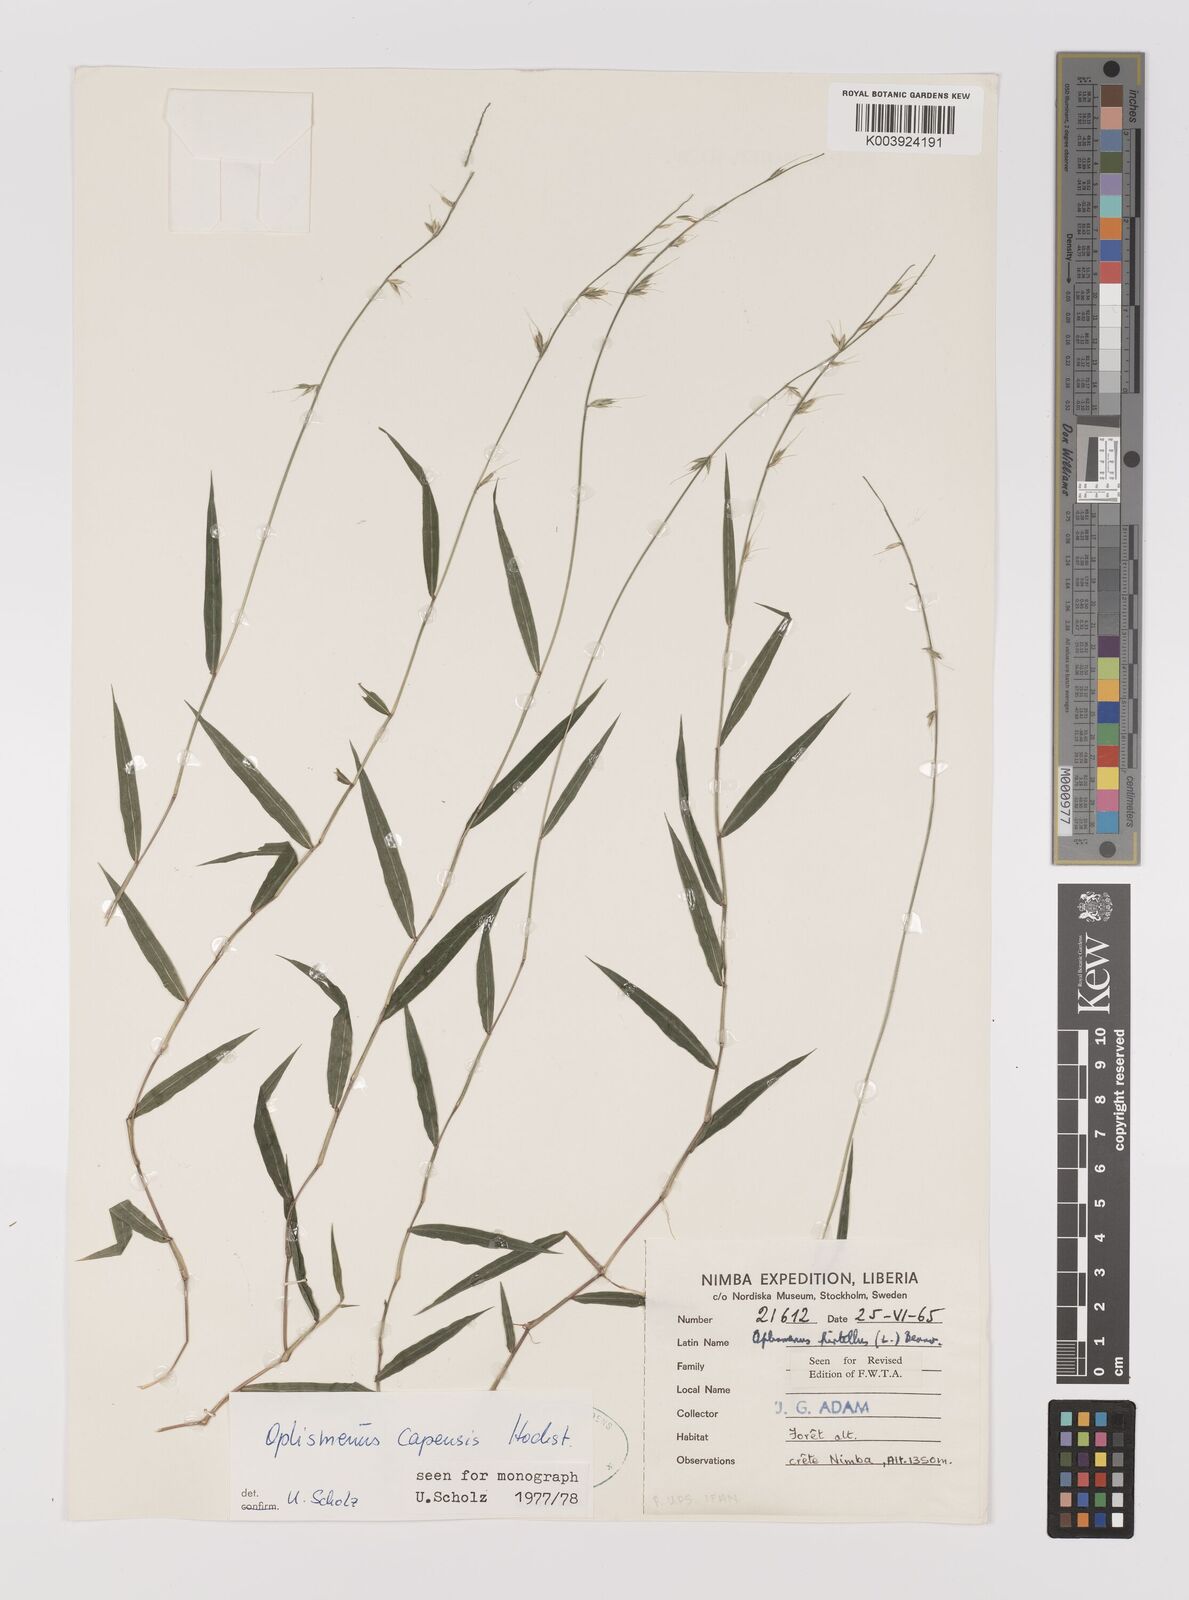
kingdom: Plantae
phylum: Tracheophyta
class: Liliopsida
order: Poales
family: Poaceae
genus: Oplismenus
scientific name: Oplismenus hirtellus
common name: Basketgrass
